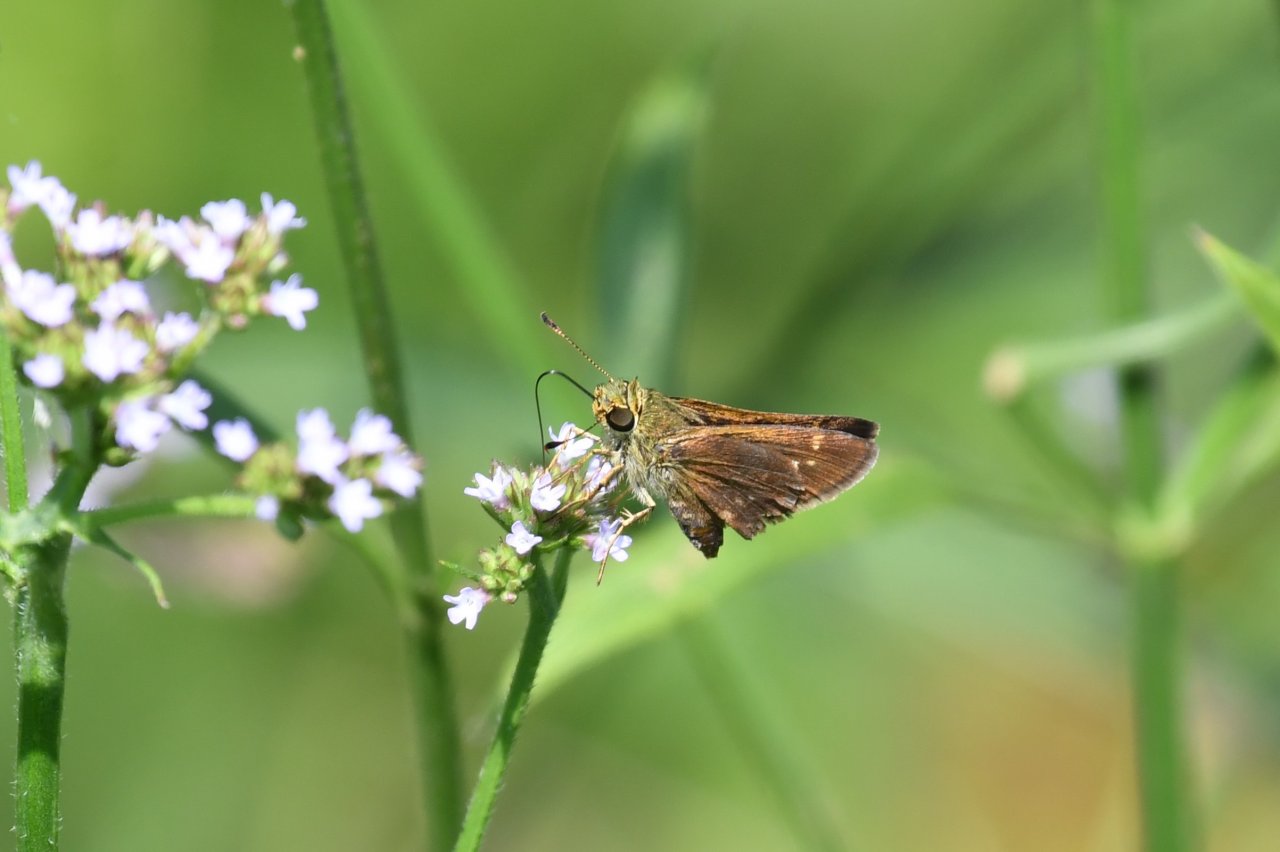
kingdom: Animalia
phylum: Arthropoda
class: Insecta
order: Lepidoptera
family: Hesperiidae
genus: Vernia
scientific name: Vernia verna
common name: Little Glassywing
